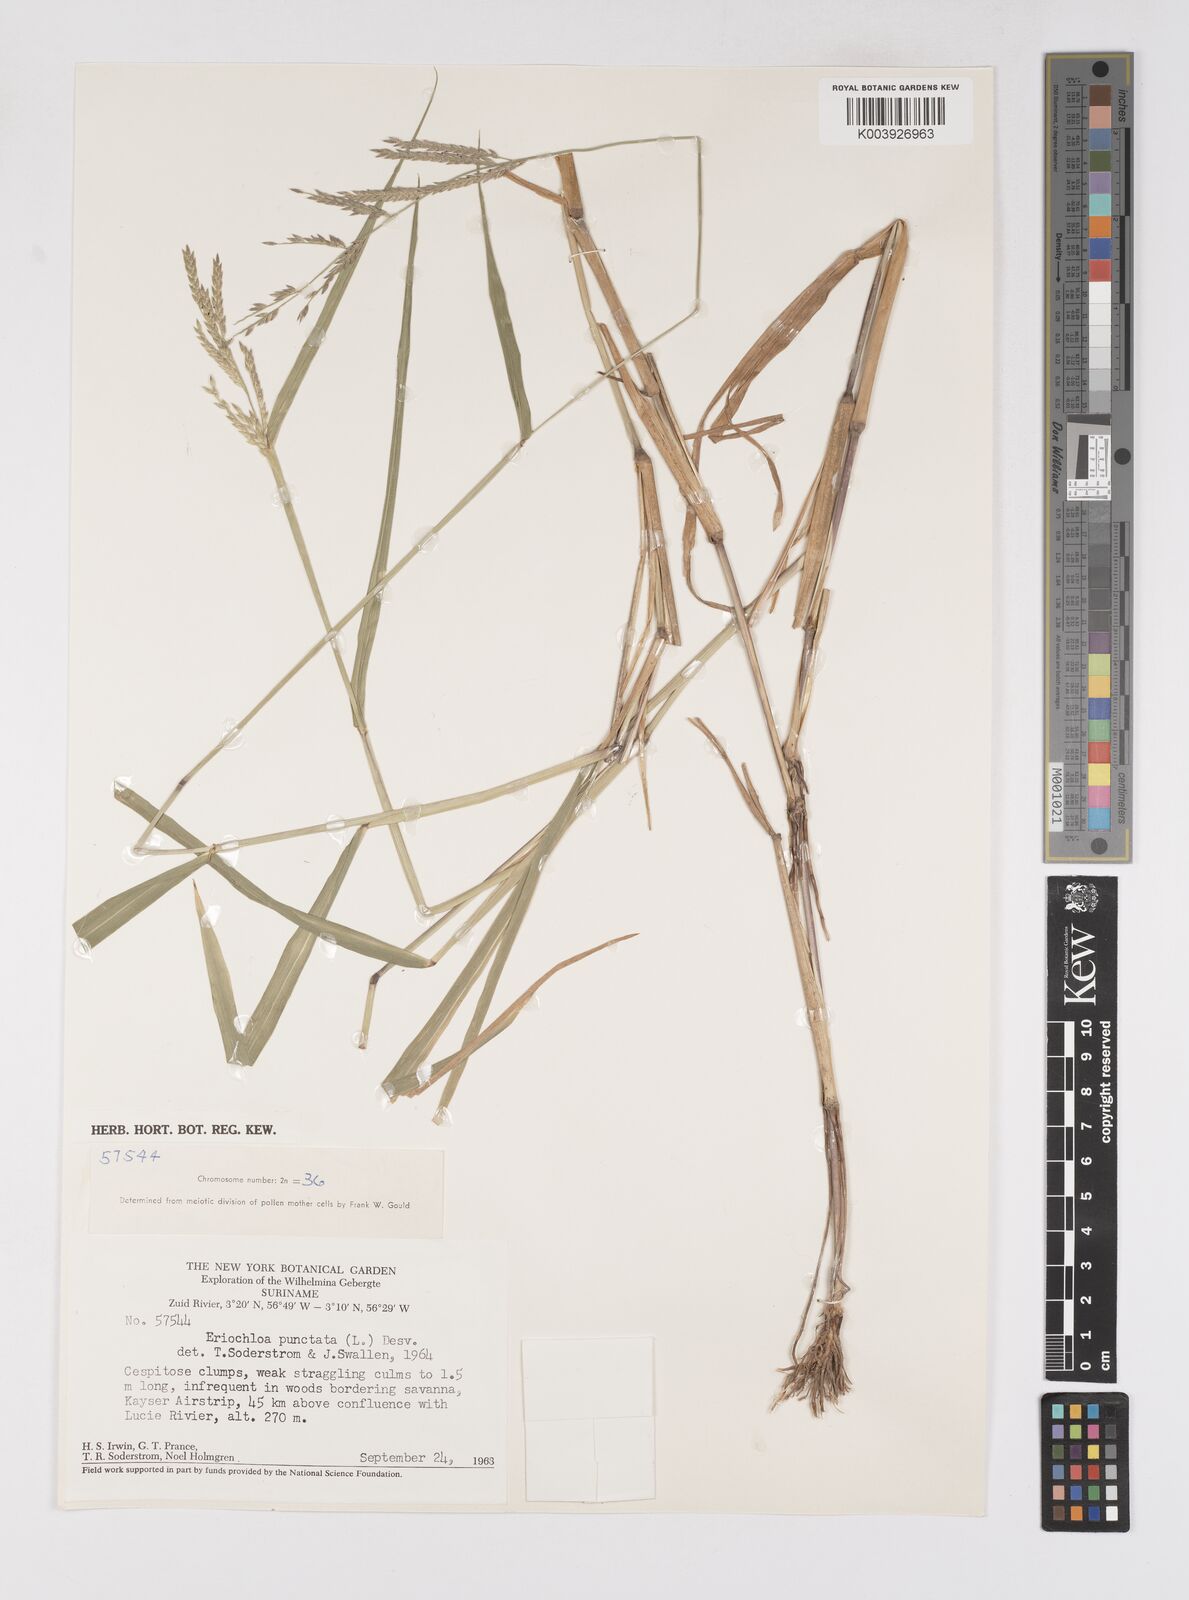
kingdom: Plantae
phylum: Tracheophyta
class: Liliopsida
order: Poales
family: Poaceae
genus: Eriochloa
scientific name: Eriochloa punctata
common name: Louisiana cupgrass
